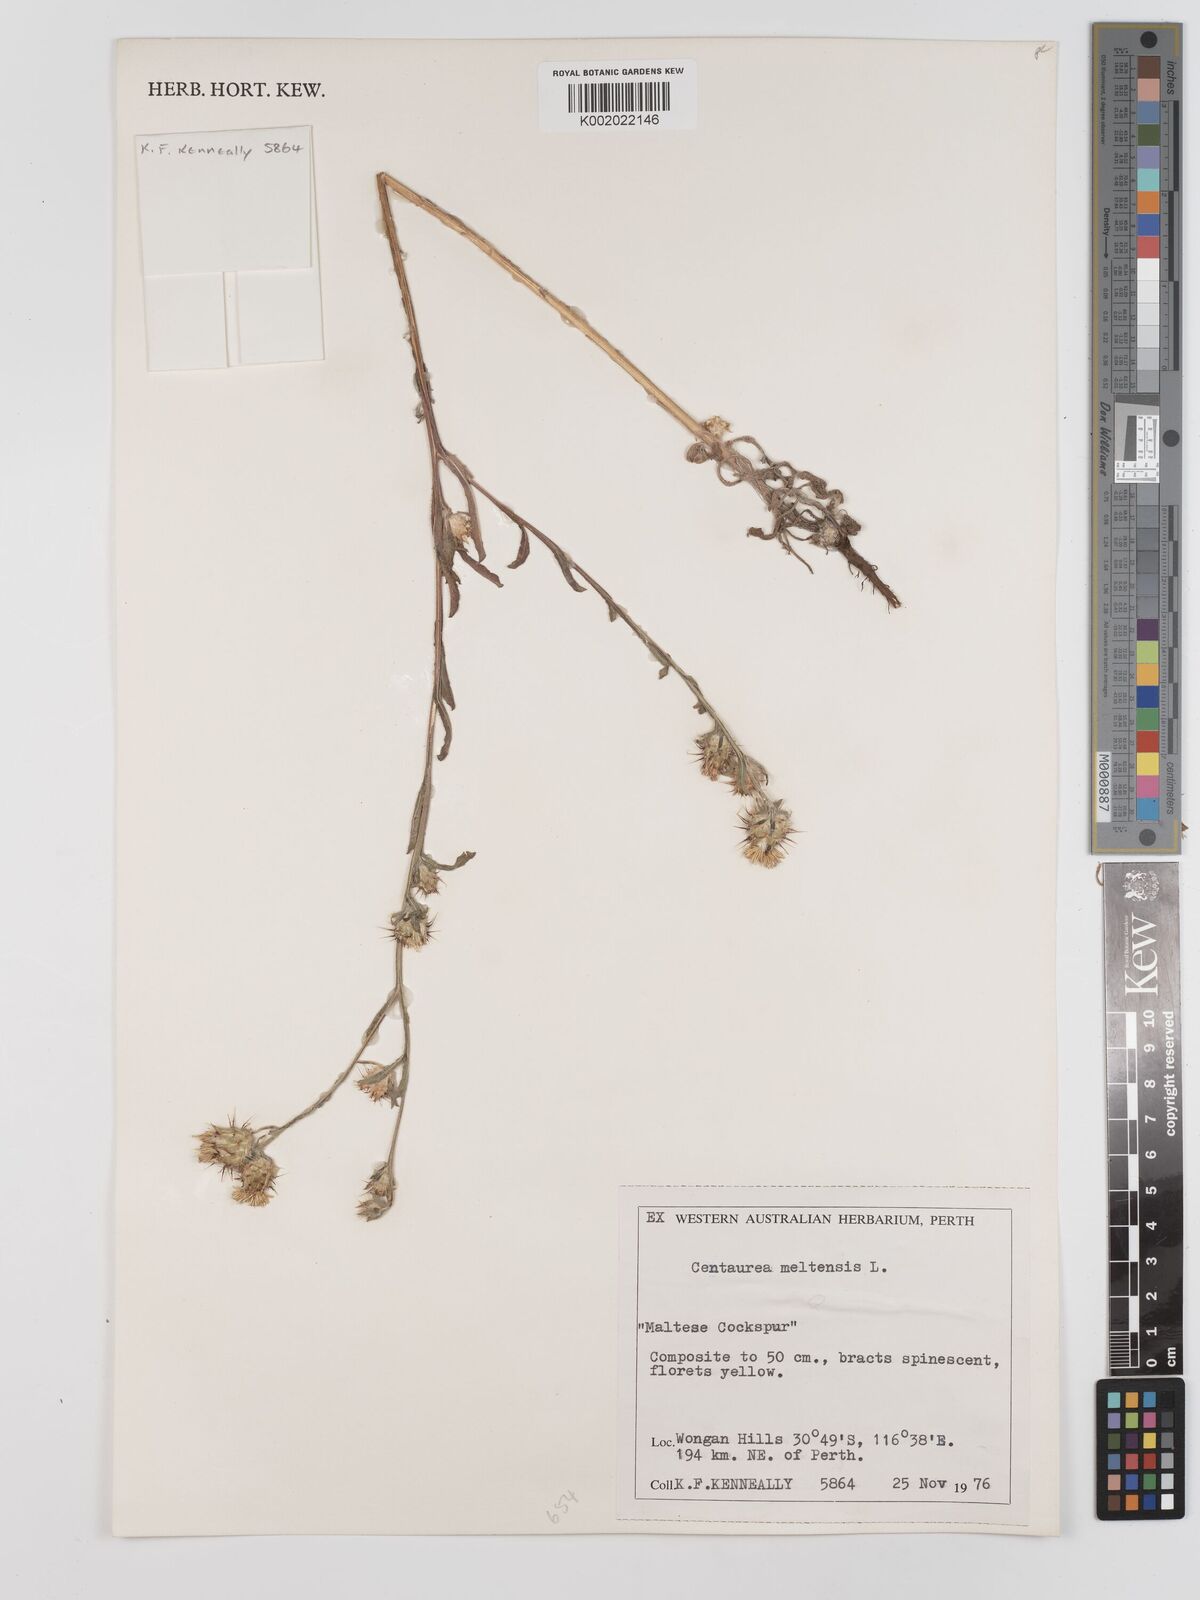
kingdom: Plantae
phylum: Tracheophyta
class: Magnoliopsida
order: Asterales
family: Asteraceae
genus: Centaurea
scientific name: Centaurea melitensis
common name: Maltese star-thistle
